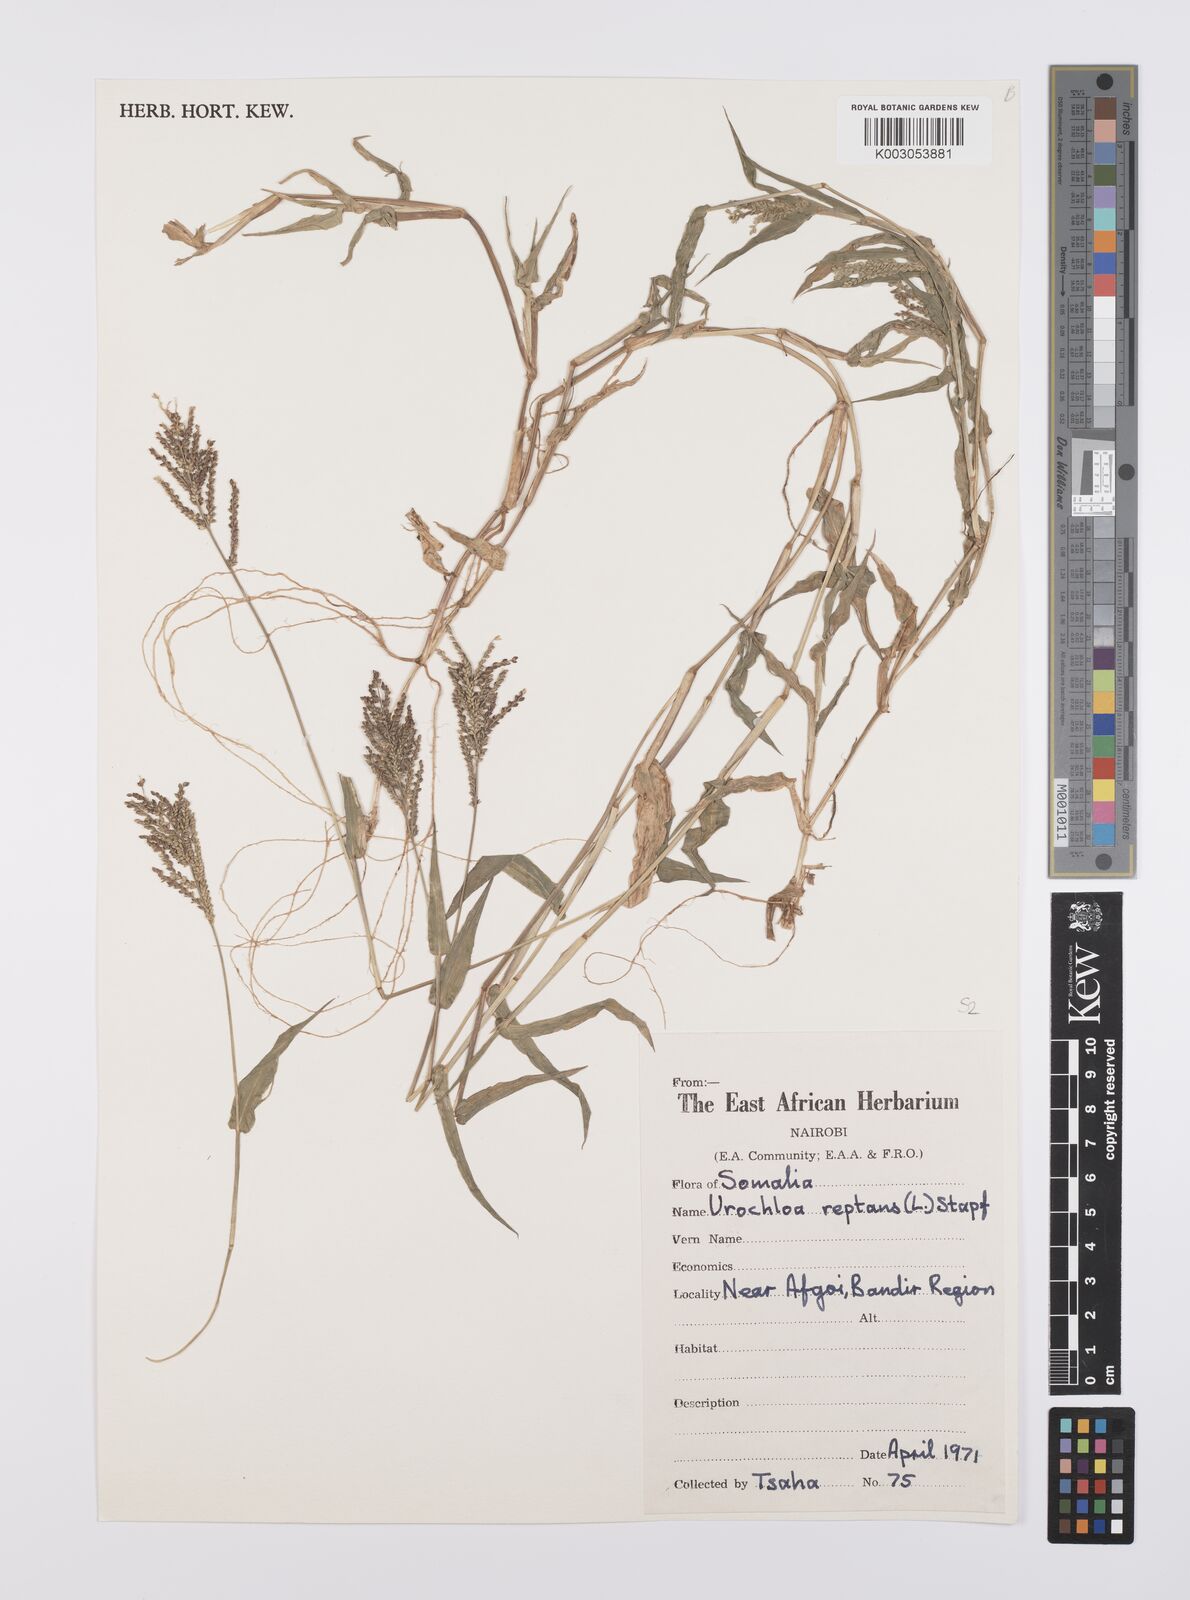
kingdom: Plantae
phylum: Tracheophyta
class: Liliopsida
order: Poales
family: Poaceae
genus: Urochloa
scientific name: Urochloa reptans
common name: Sprawling signalgrass
